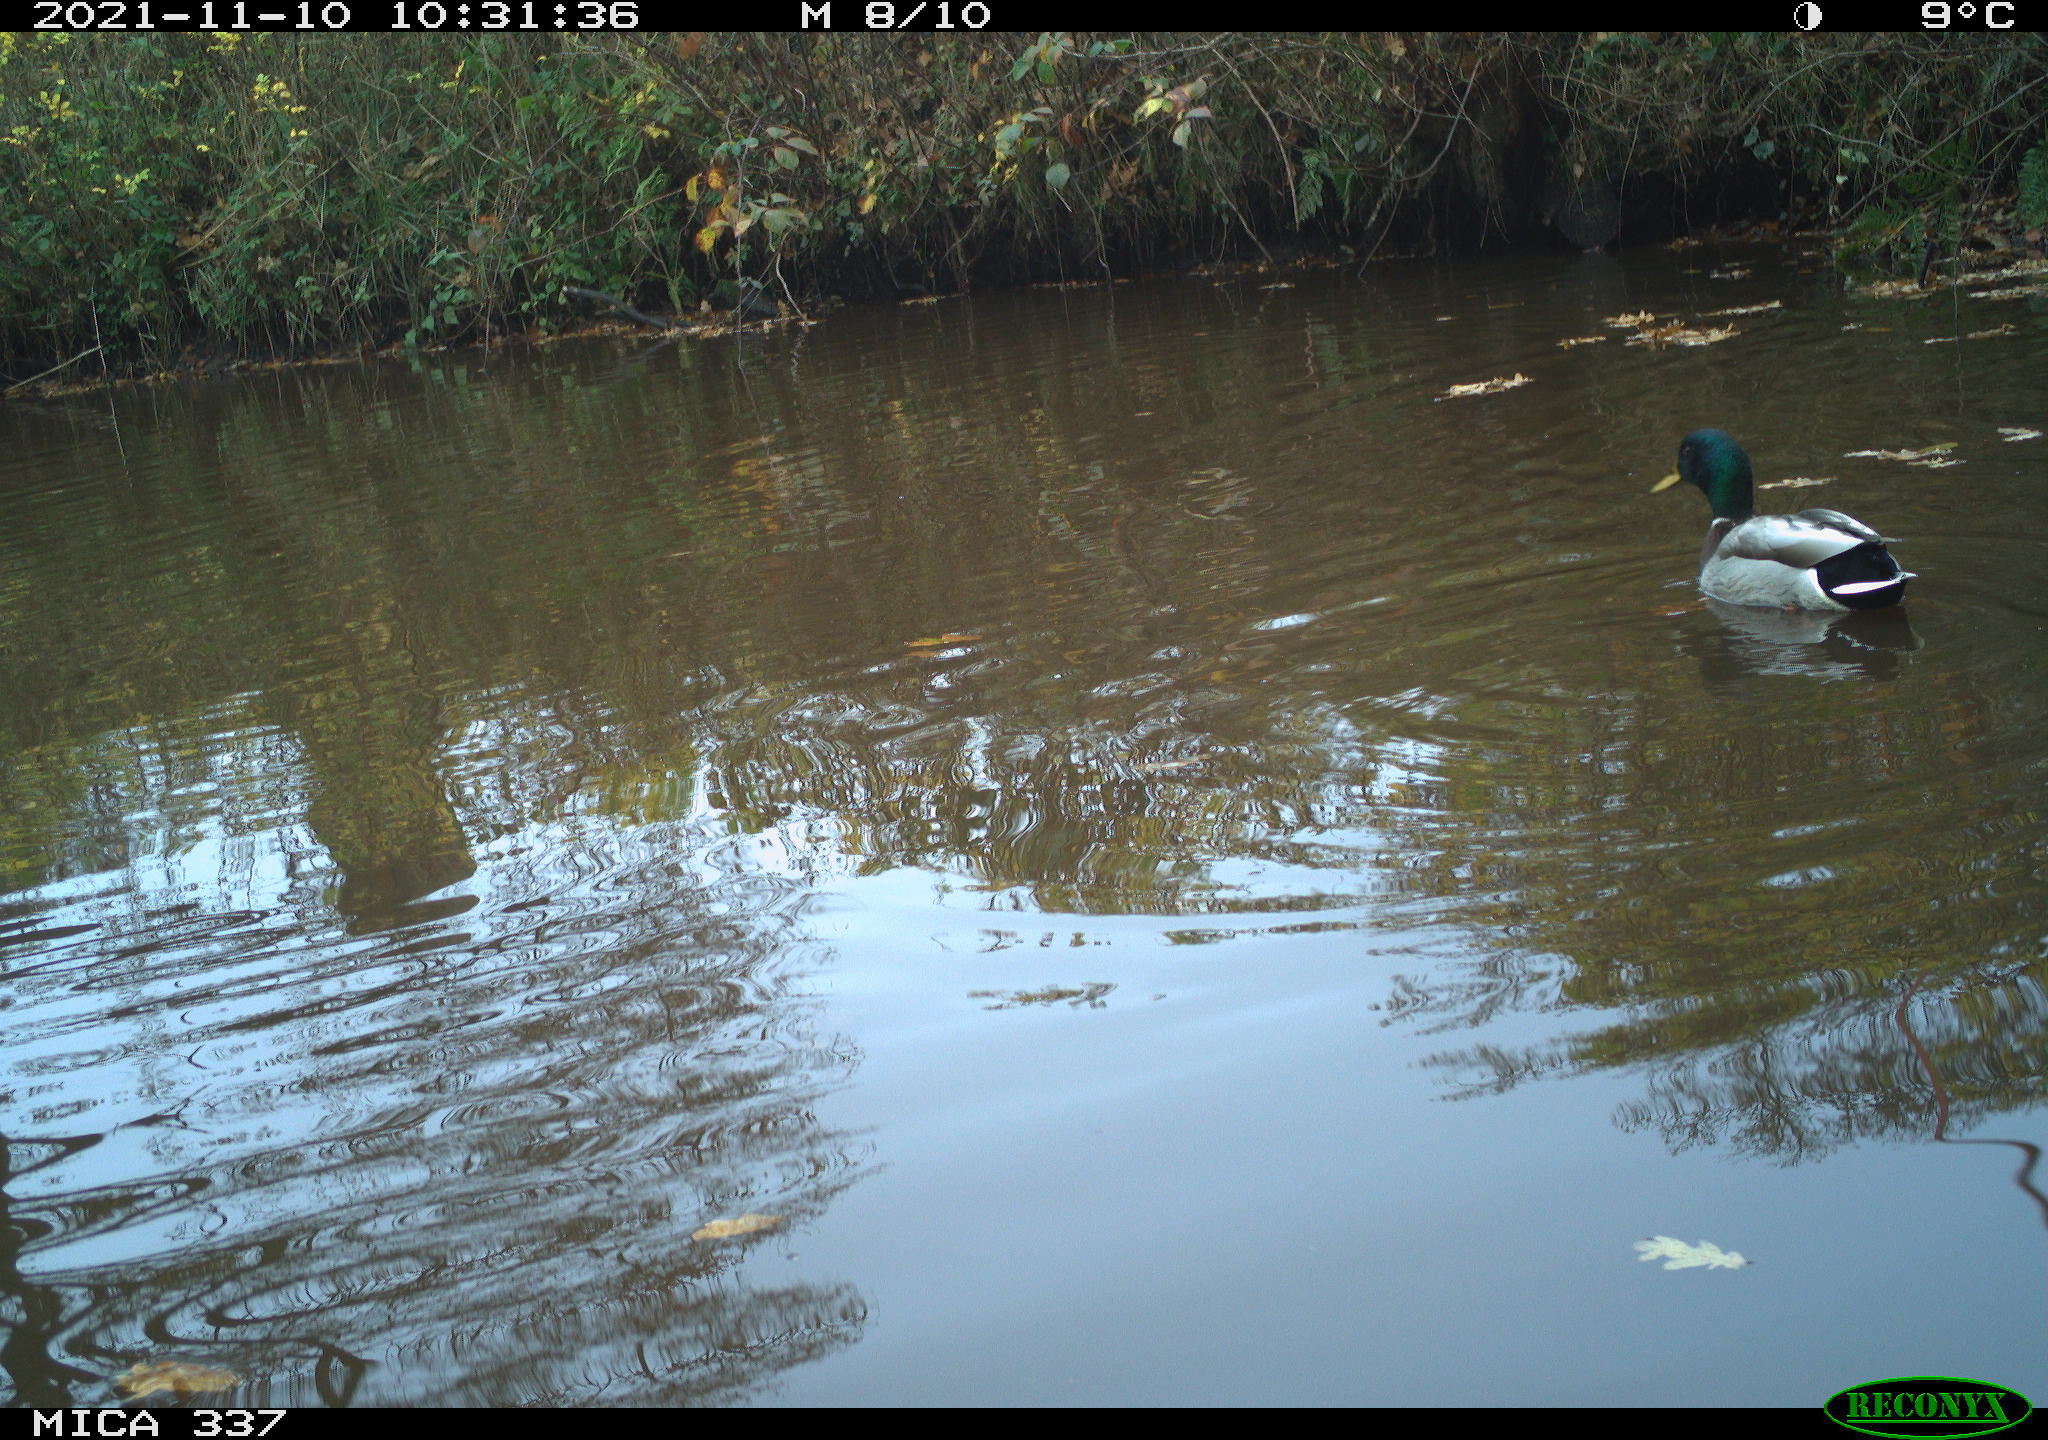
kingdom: Animalia
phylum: Chordata
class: Aves
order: Anseriformes
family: Anatidae
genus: Anas
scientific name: Anas platyrhynchos
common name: Mallard
